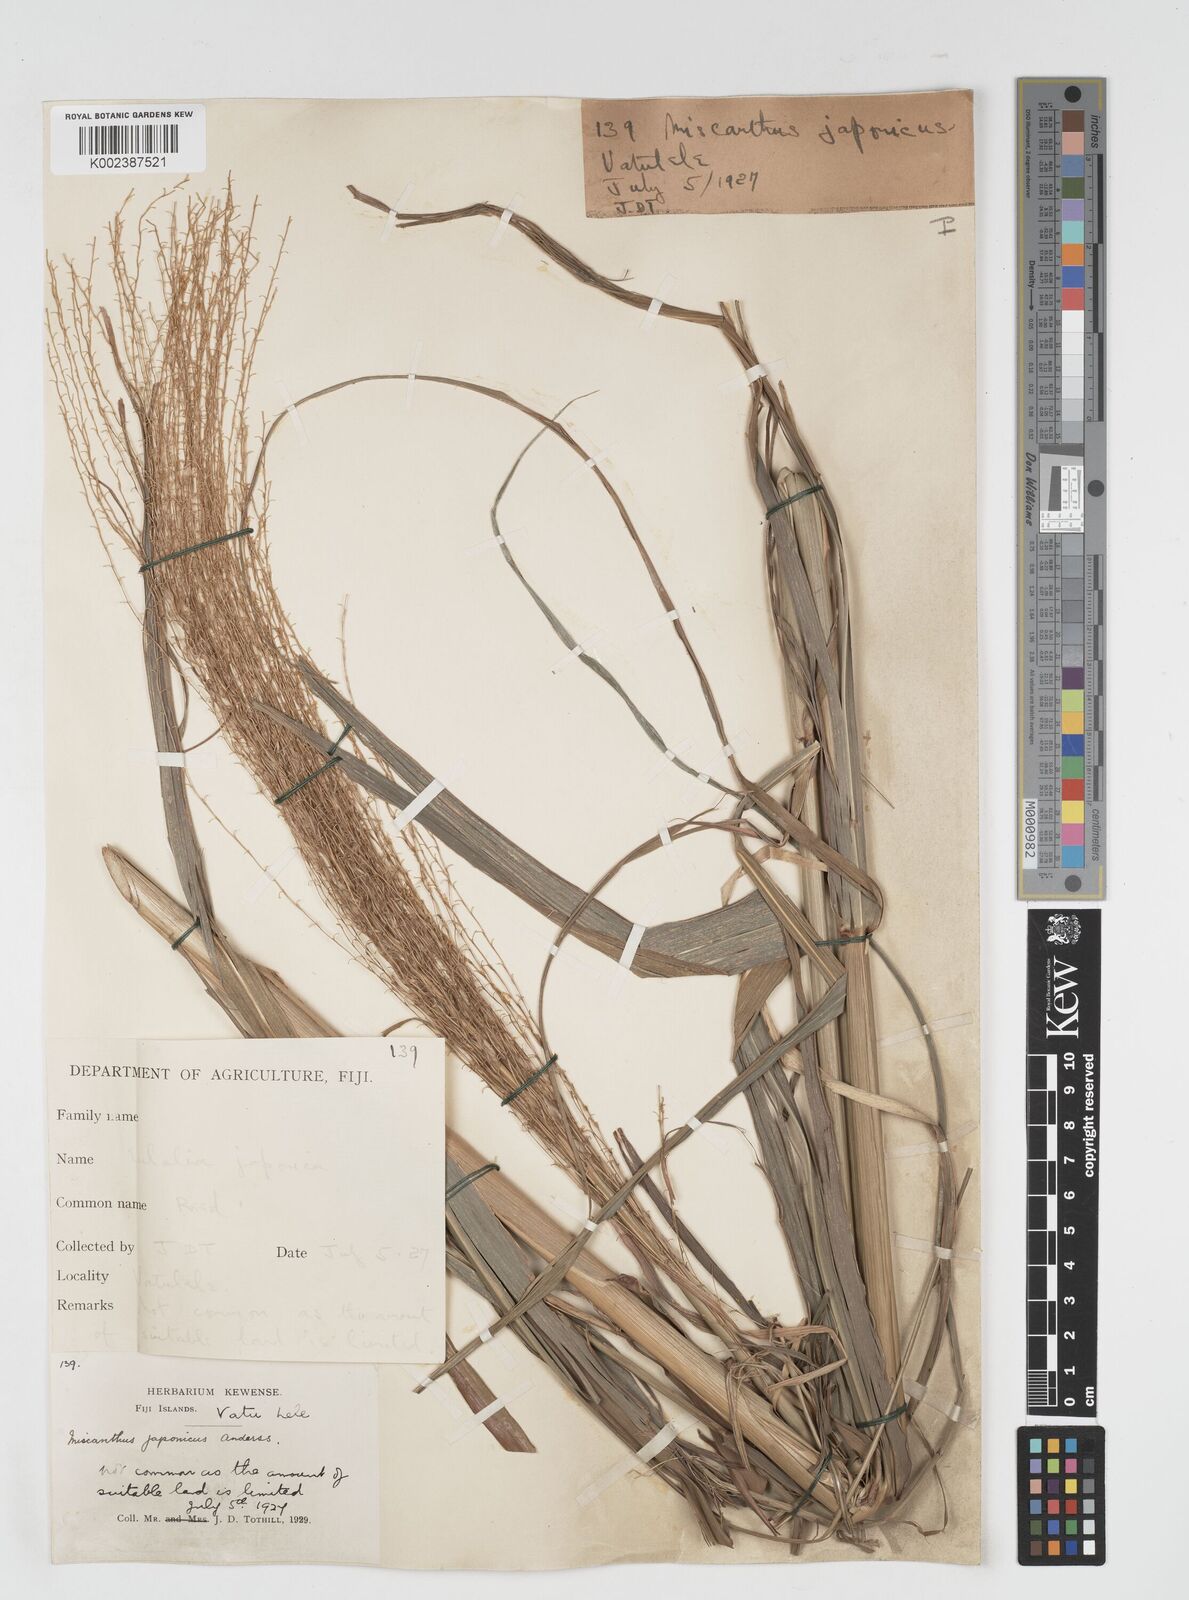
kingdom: Plantae
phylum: Tracheophyta
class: Liliopsida
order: Poales
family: Poaceae
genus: Miscanthus
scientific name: Miscanthus floridulus
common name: Pacific island silvergrass
